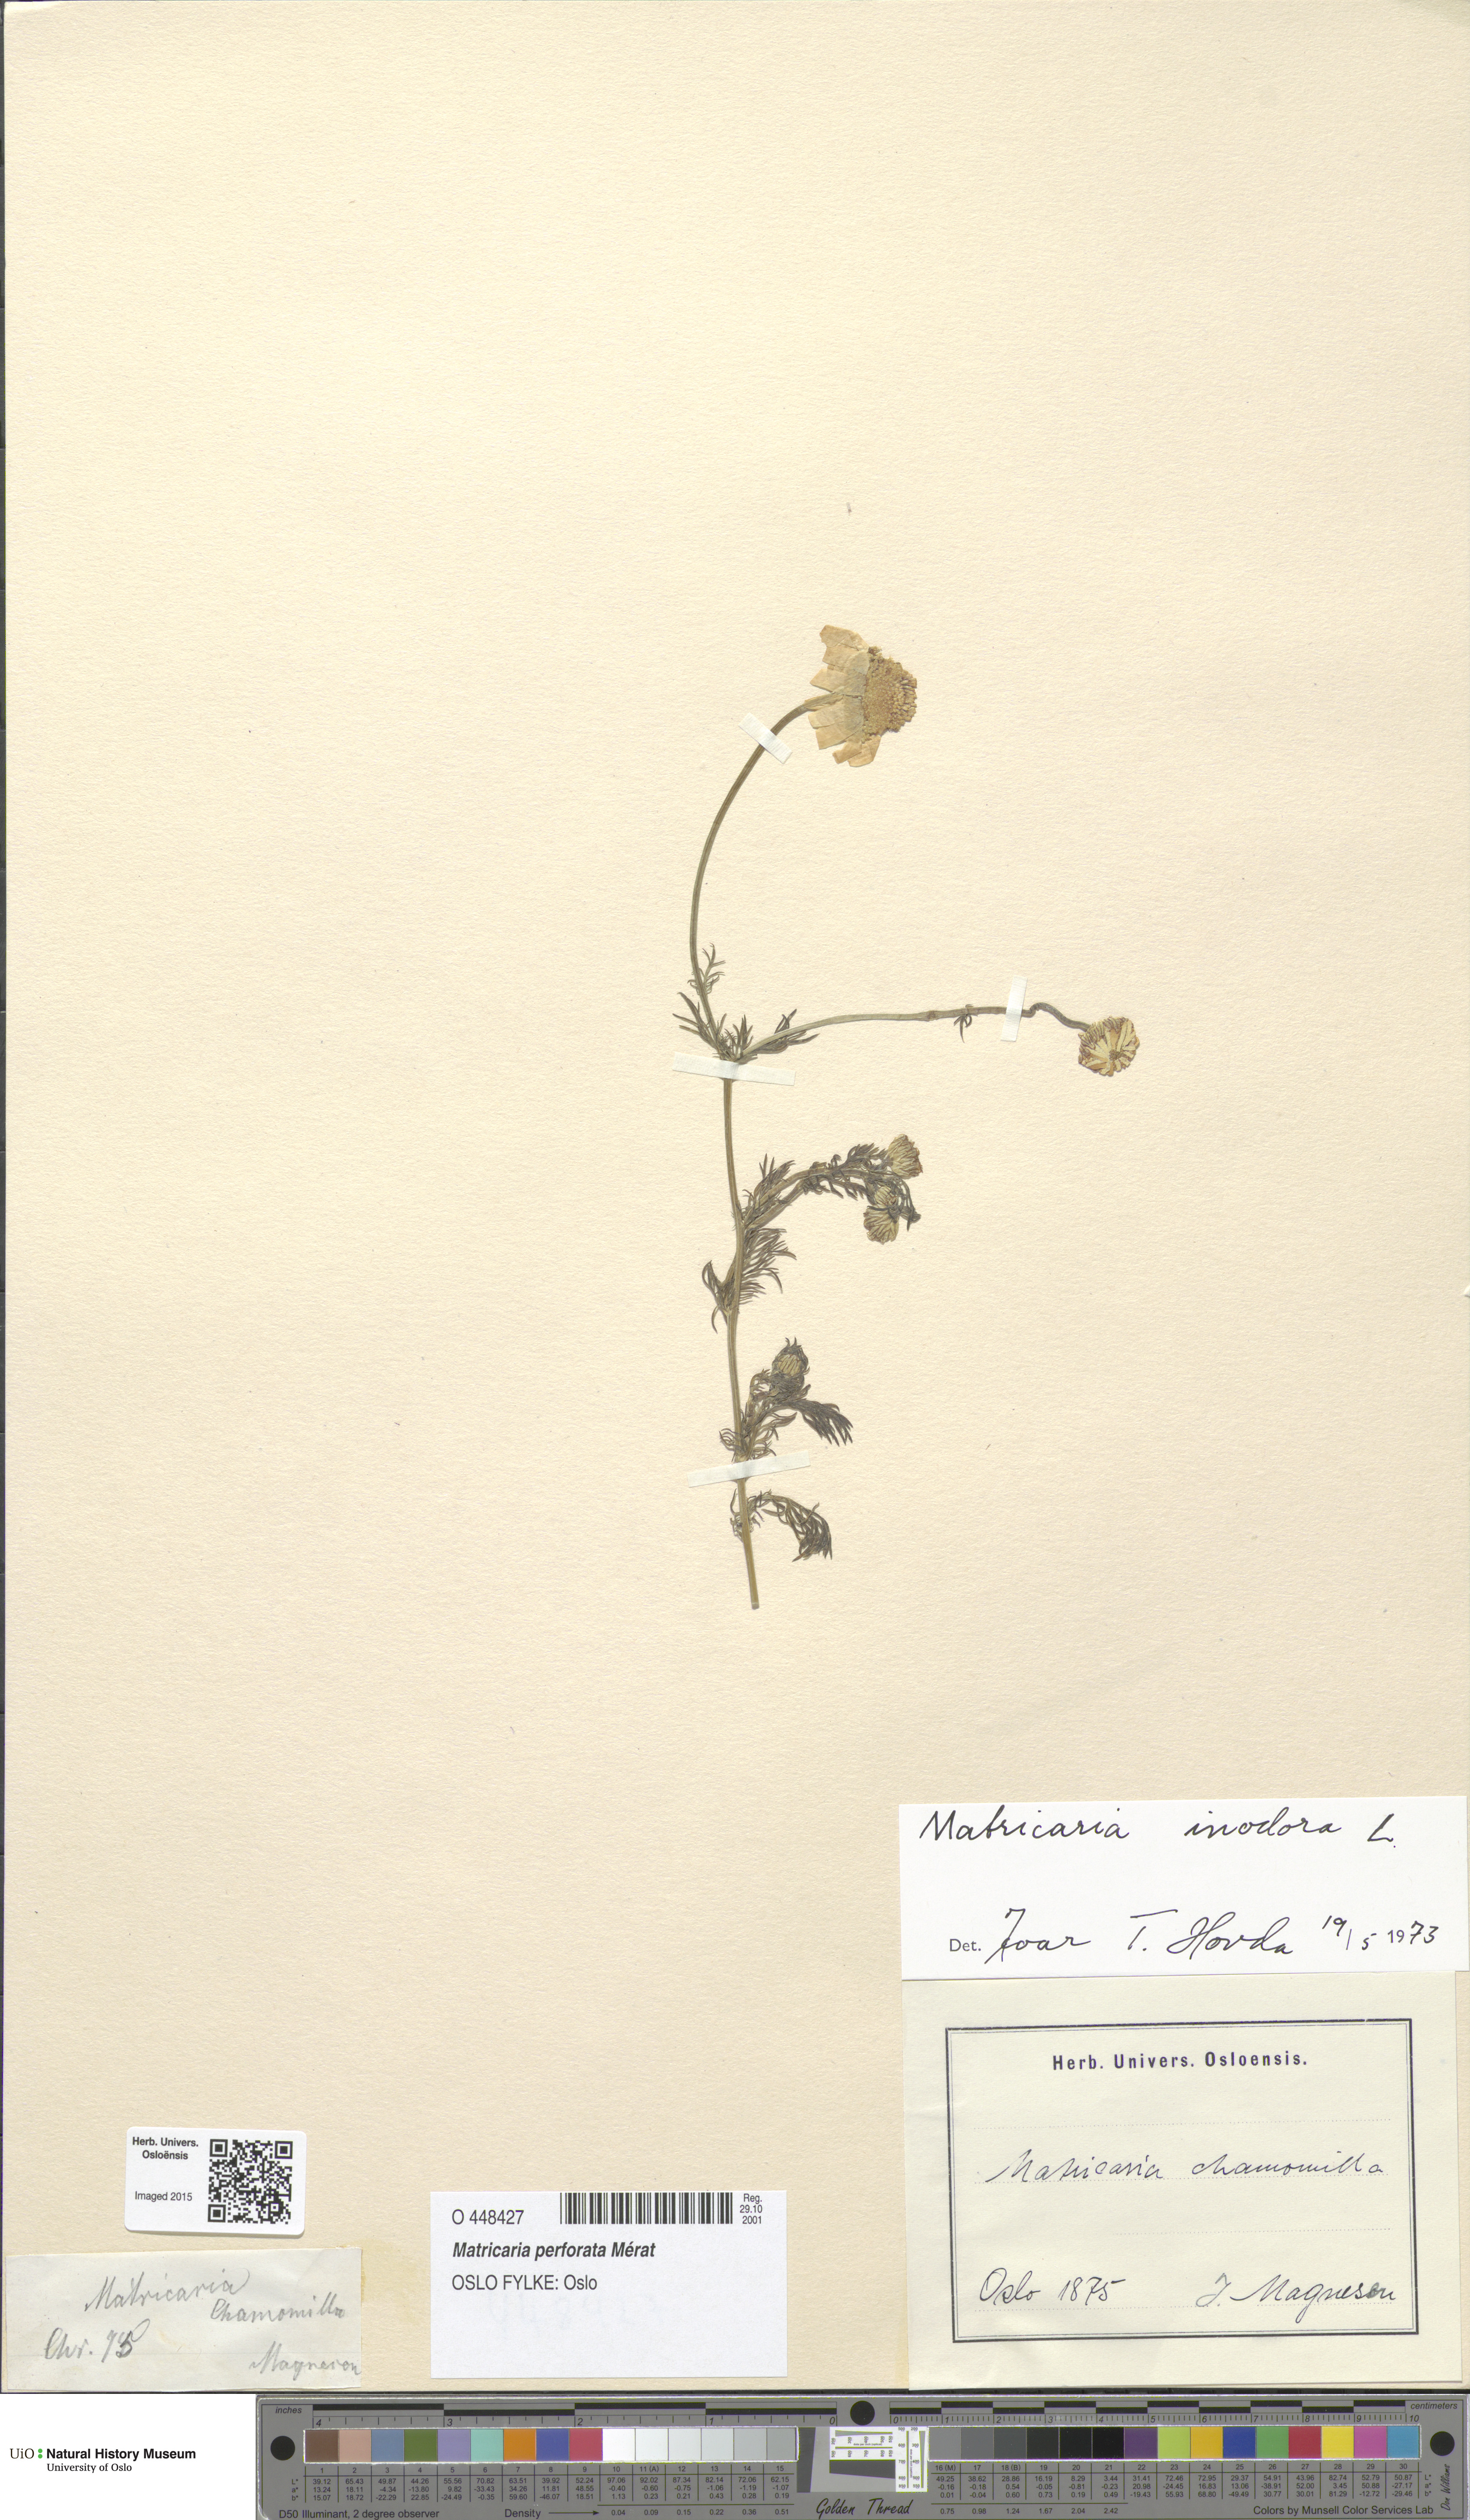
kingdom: Plantae
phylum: Tracheophyta
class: Magnoliopsida
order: Asterales
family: Asteraceae
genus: Tripleurospermum
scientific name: Tripleurospermum inodorum
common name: Scentless mayweed
